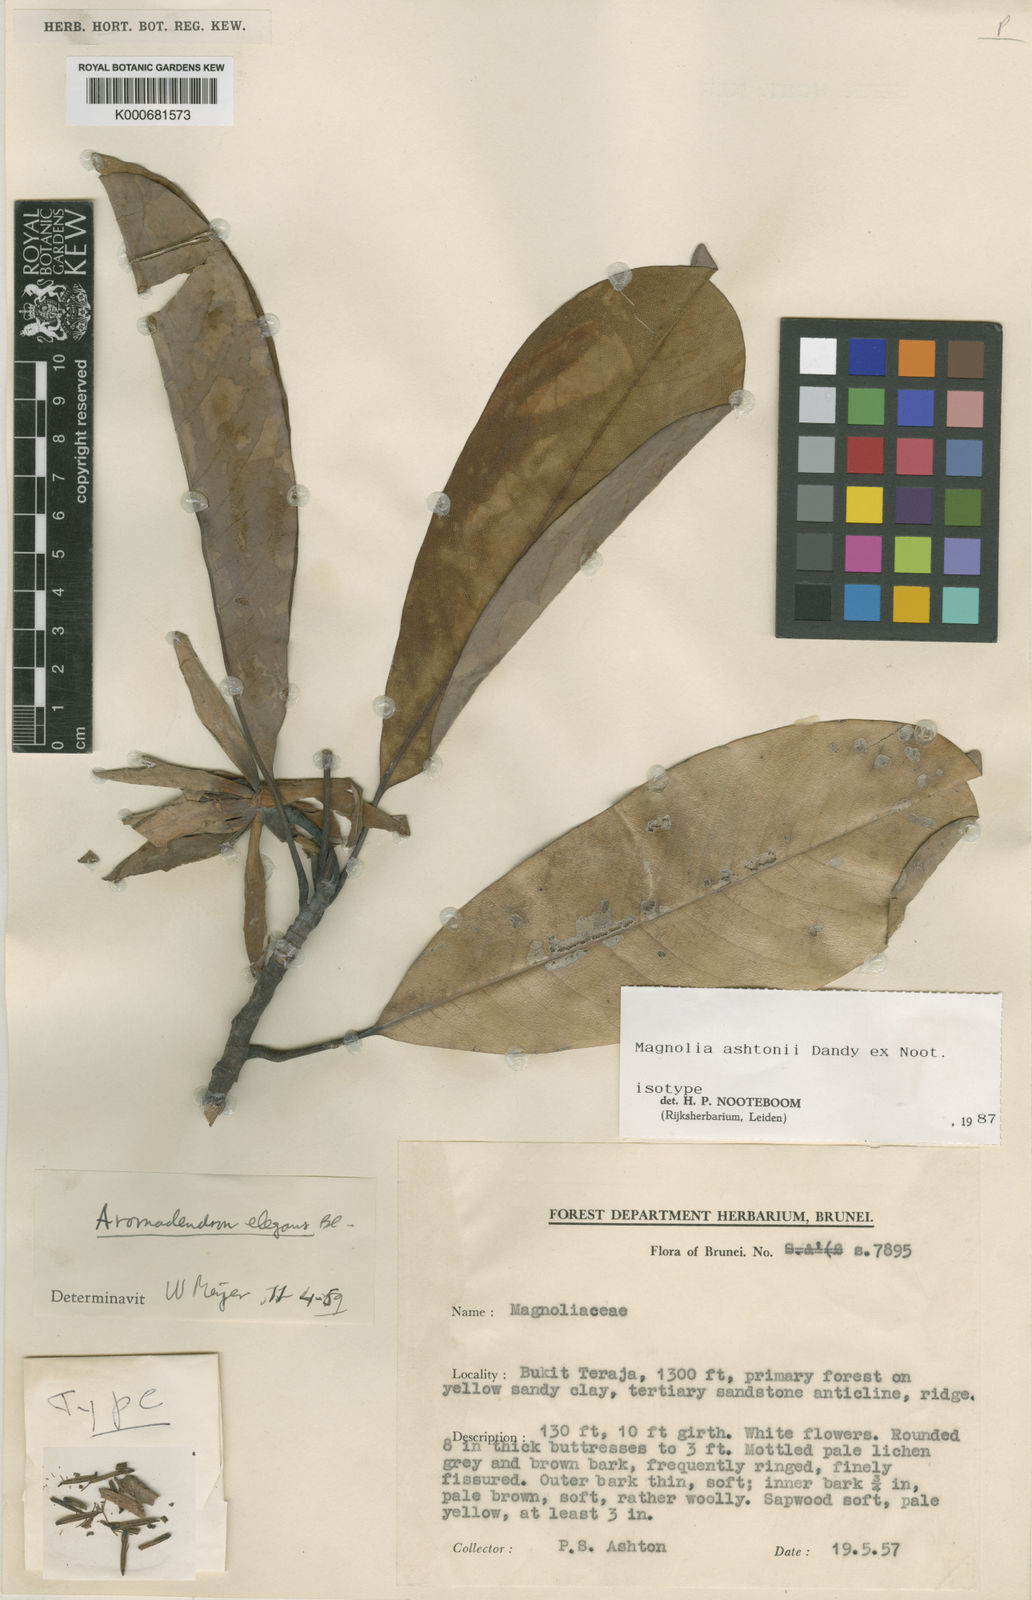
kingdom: Plantae
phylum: Tracheophyta
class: Magnoliopsida
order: Magnoliales
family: Magnoliaceae
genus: Magnolia
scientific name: Magnolia ashtonii
